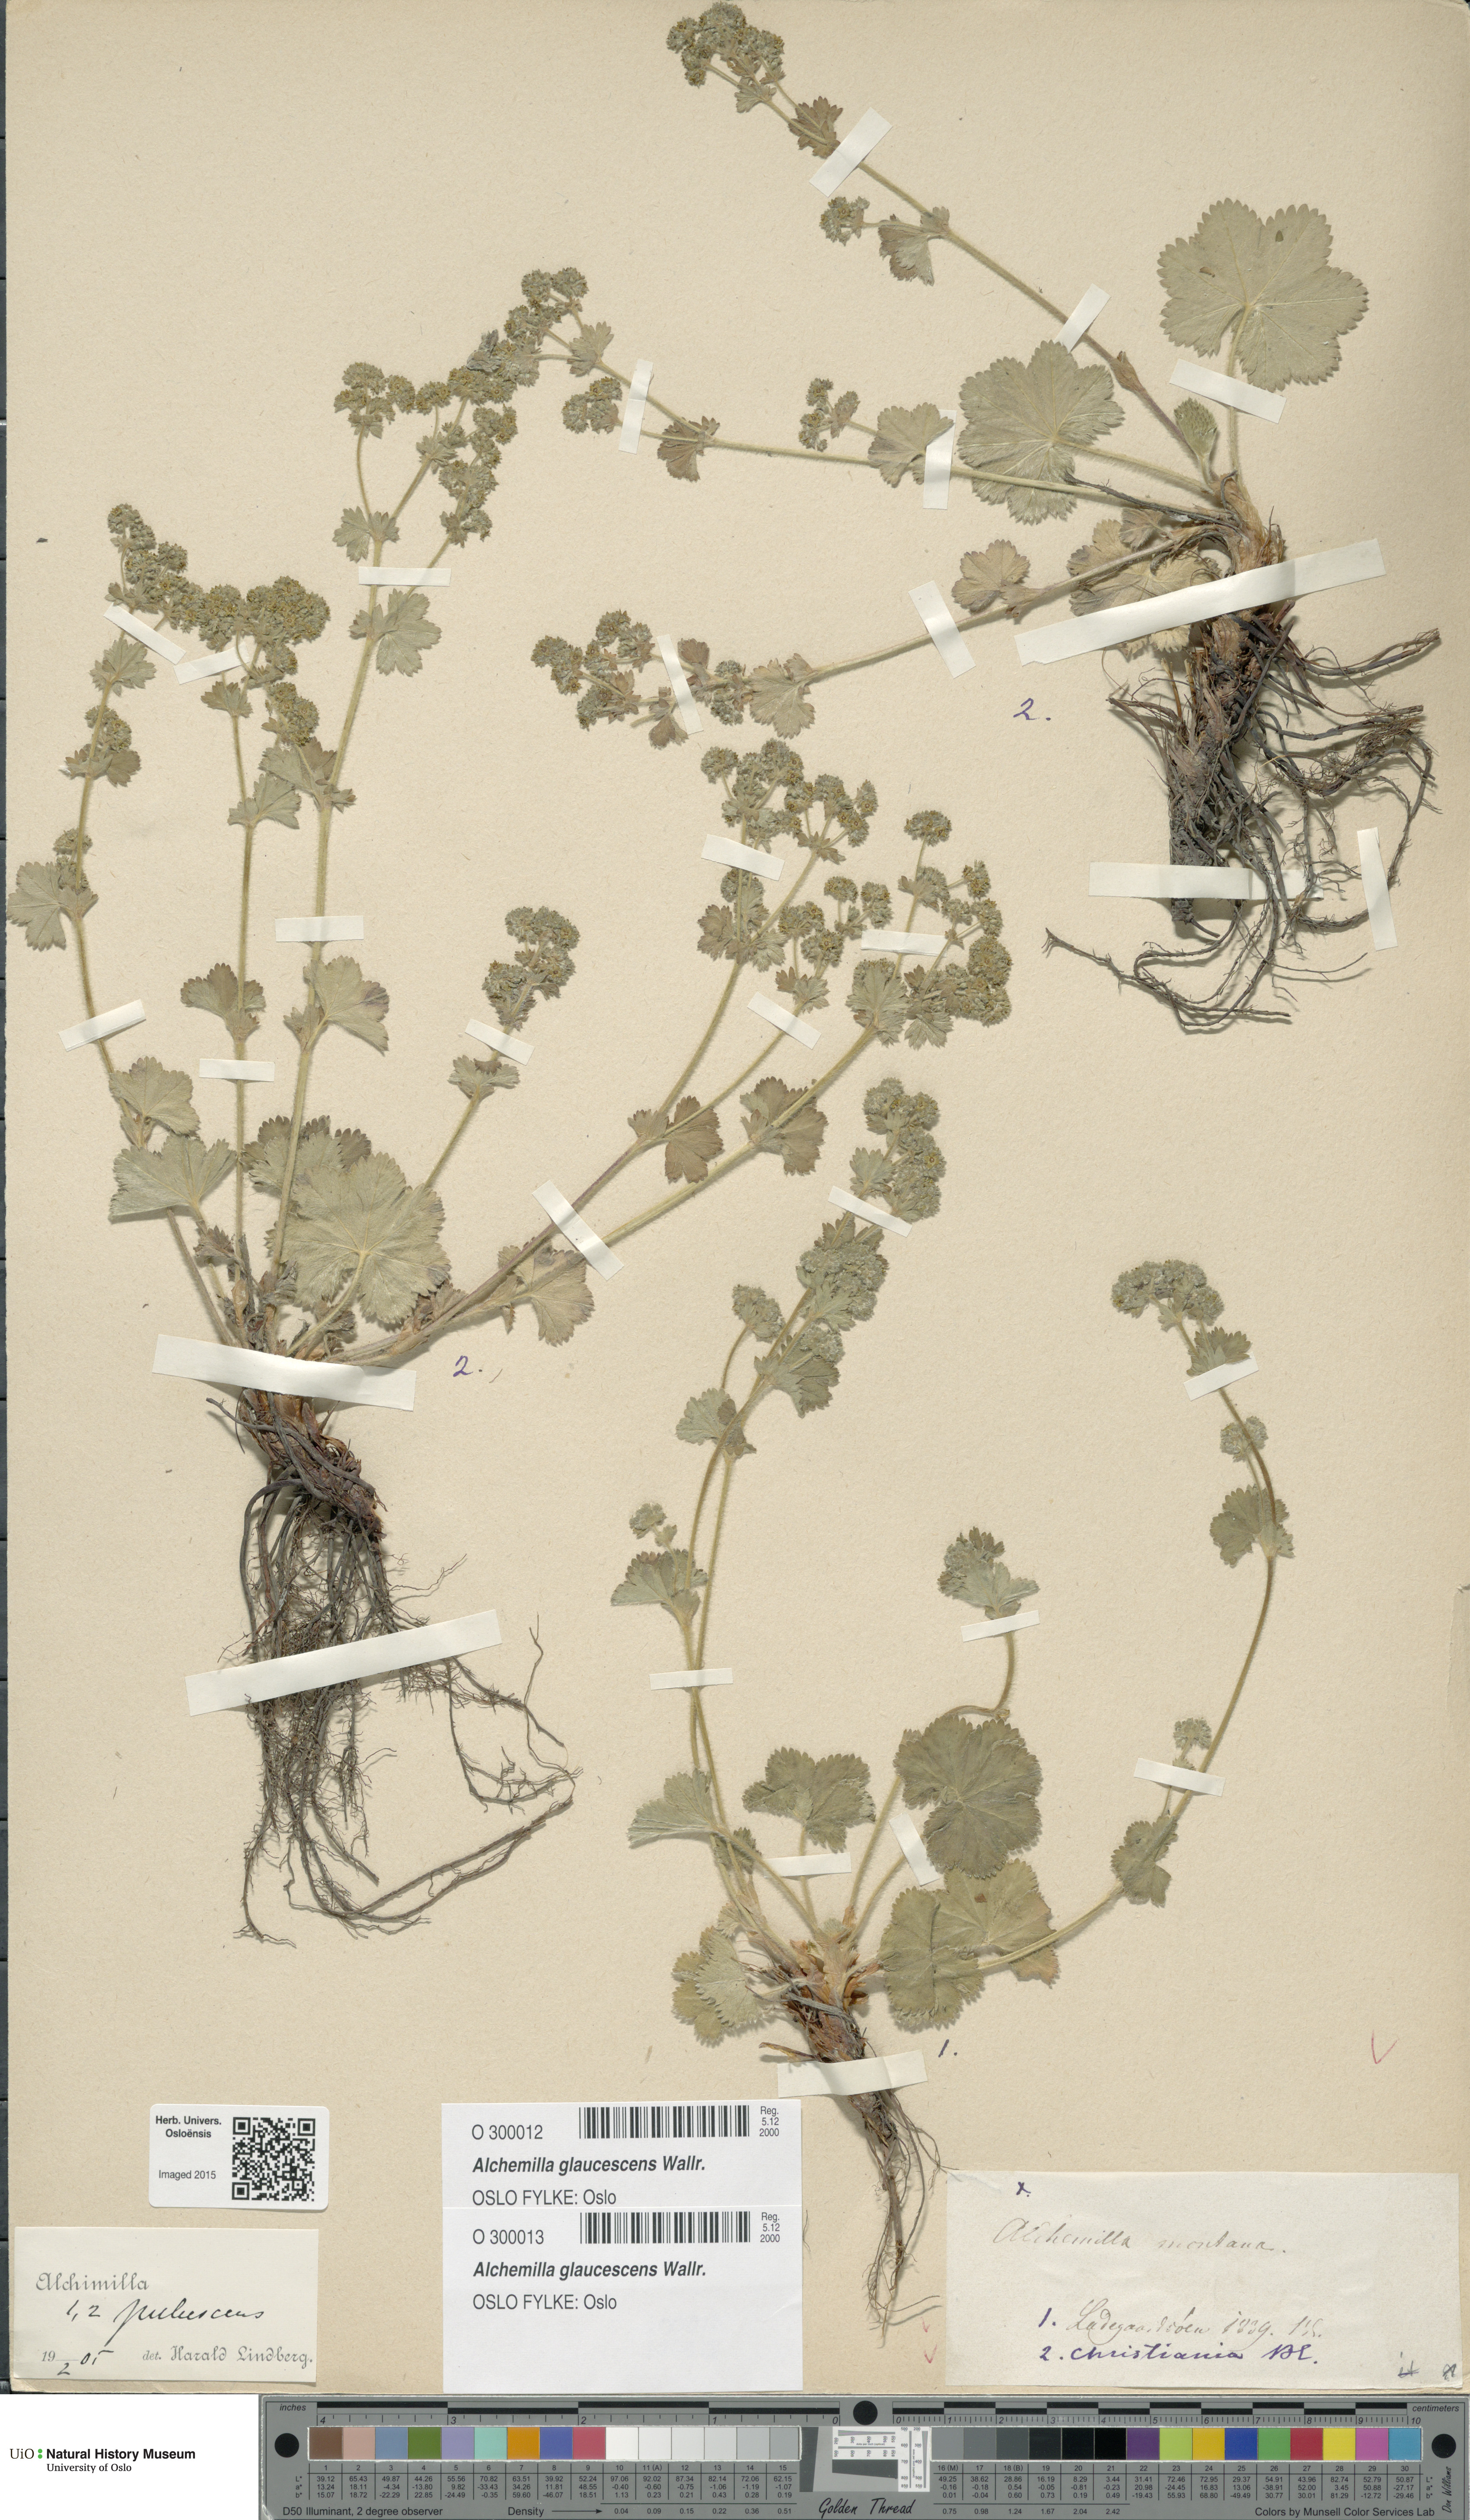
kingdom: Plantae
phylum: Tracheophyta
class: Magnoliopsida
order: Rosales
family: Rosaceae
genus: Alchemilla
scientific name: Alchemilla glaucescens
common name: Silky lady's mantle
